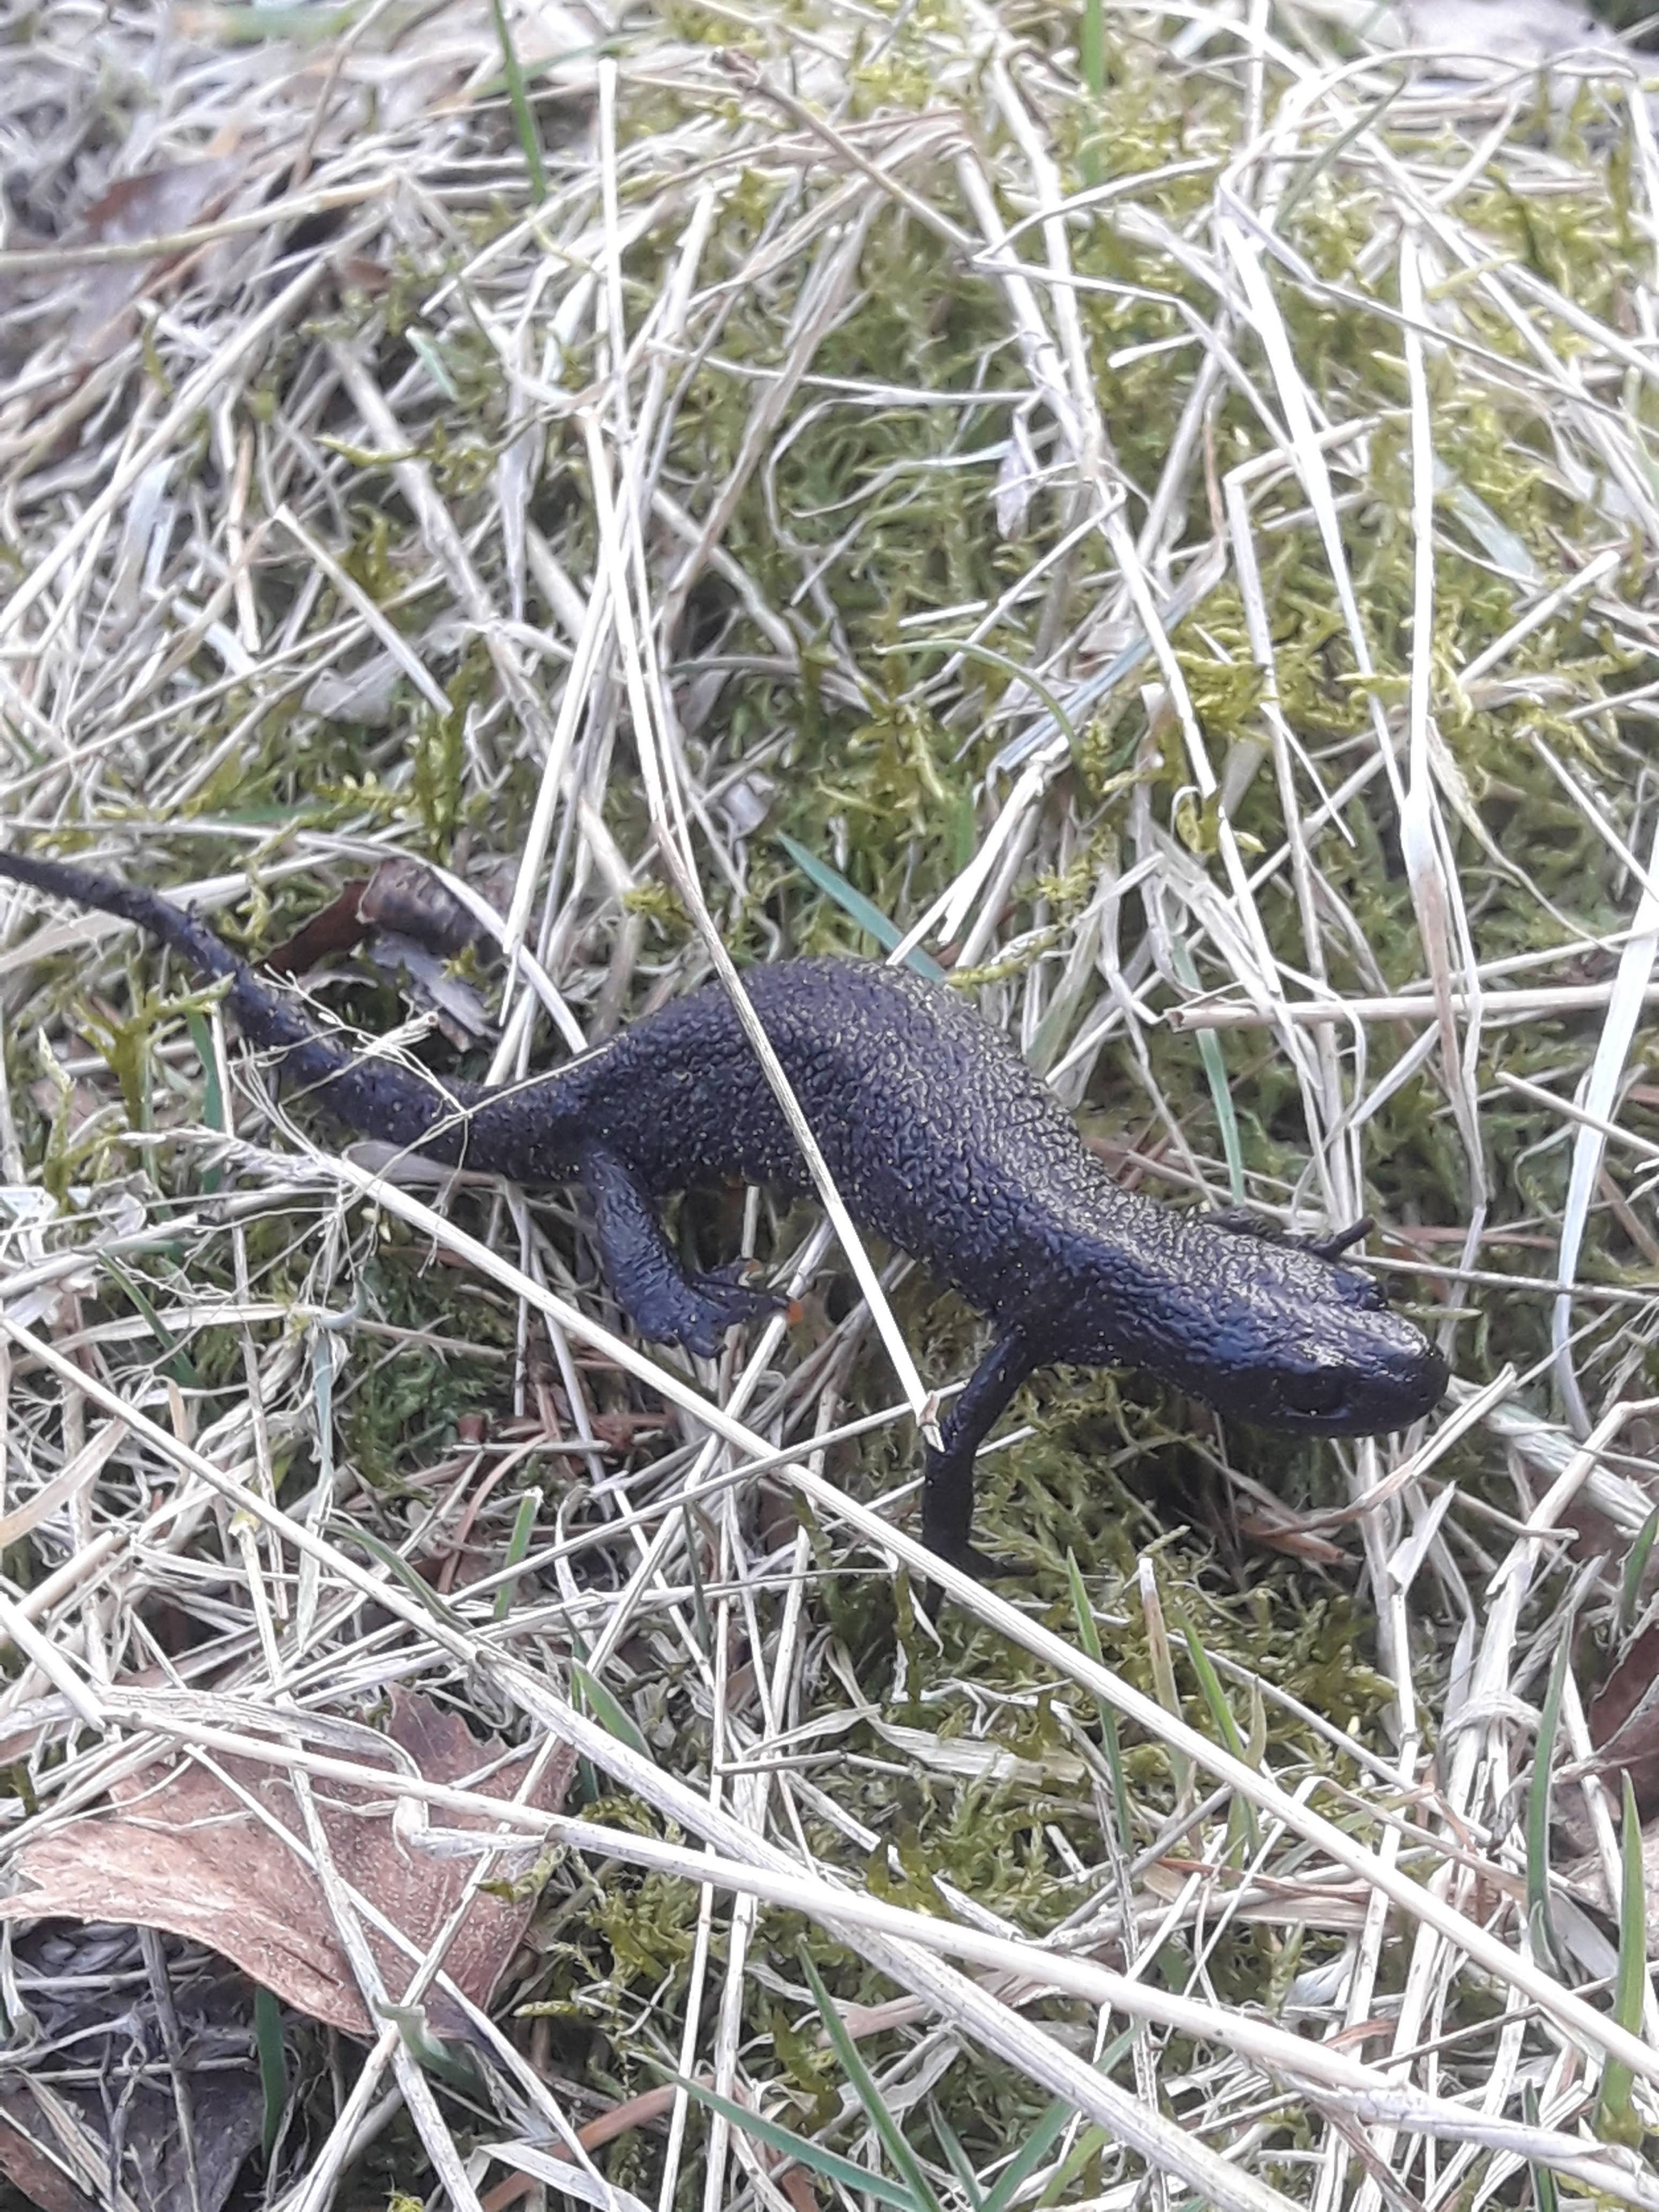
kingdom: Animalia
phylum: Chordata
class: Amphibia
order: Caudata
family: Salamandridae
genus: Triturus
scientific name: Triturus cristatus
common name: Stor vandsalamander
